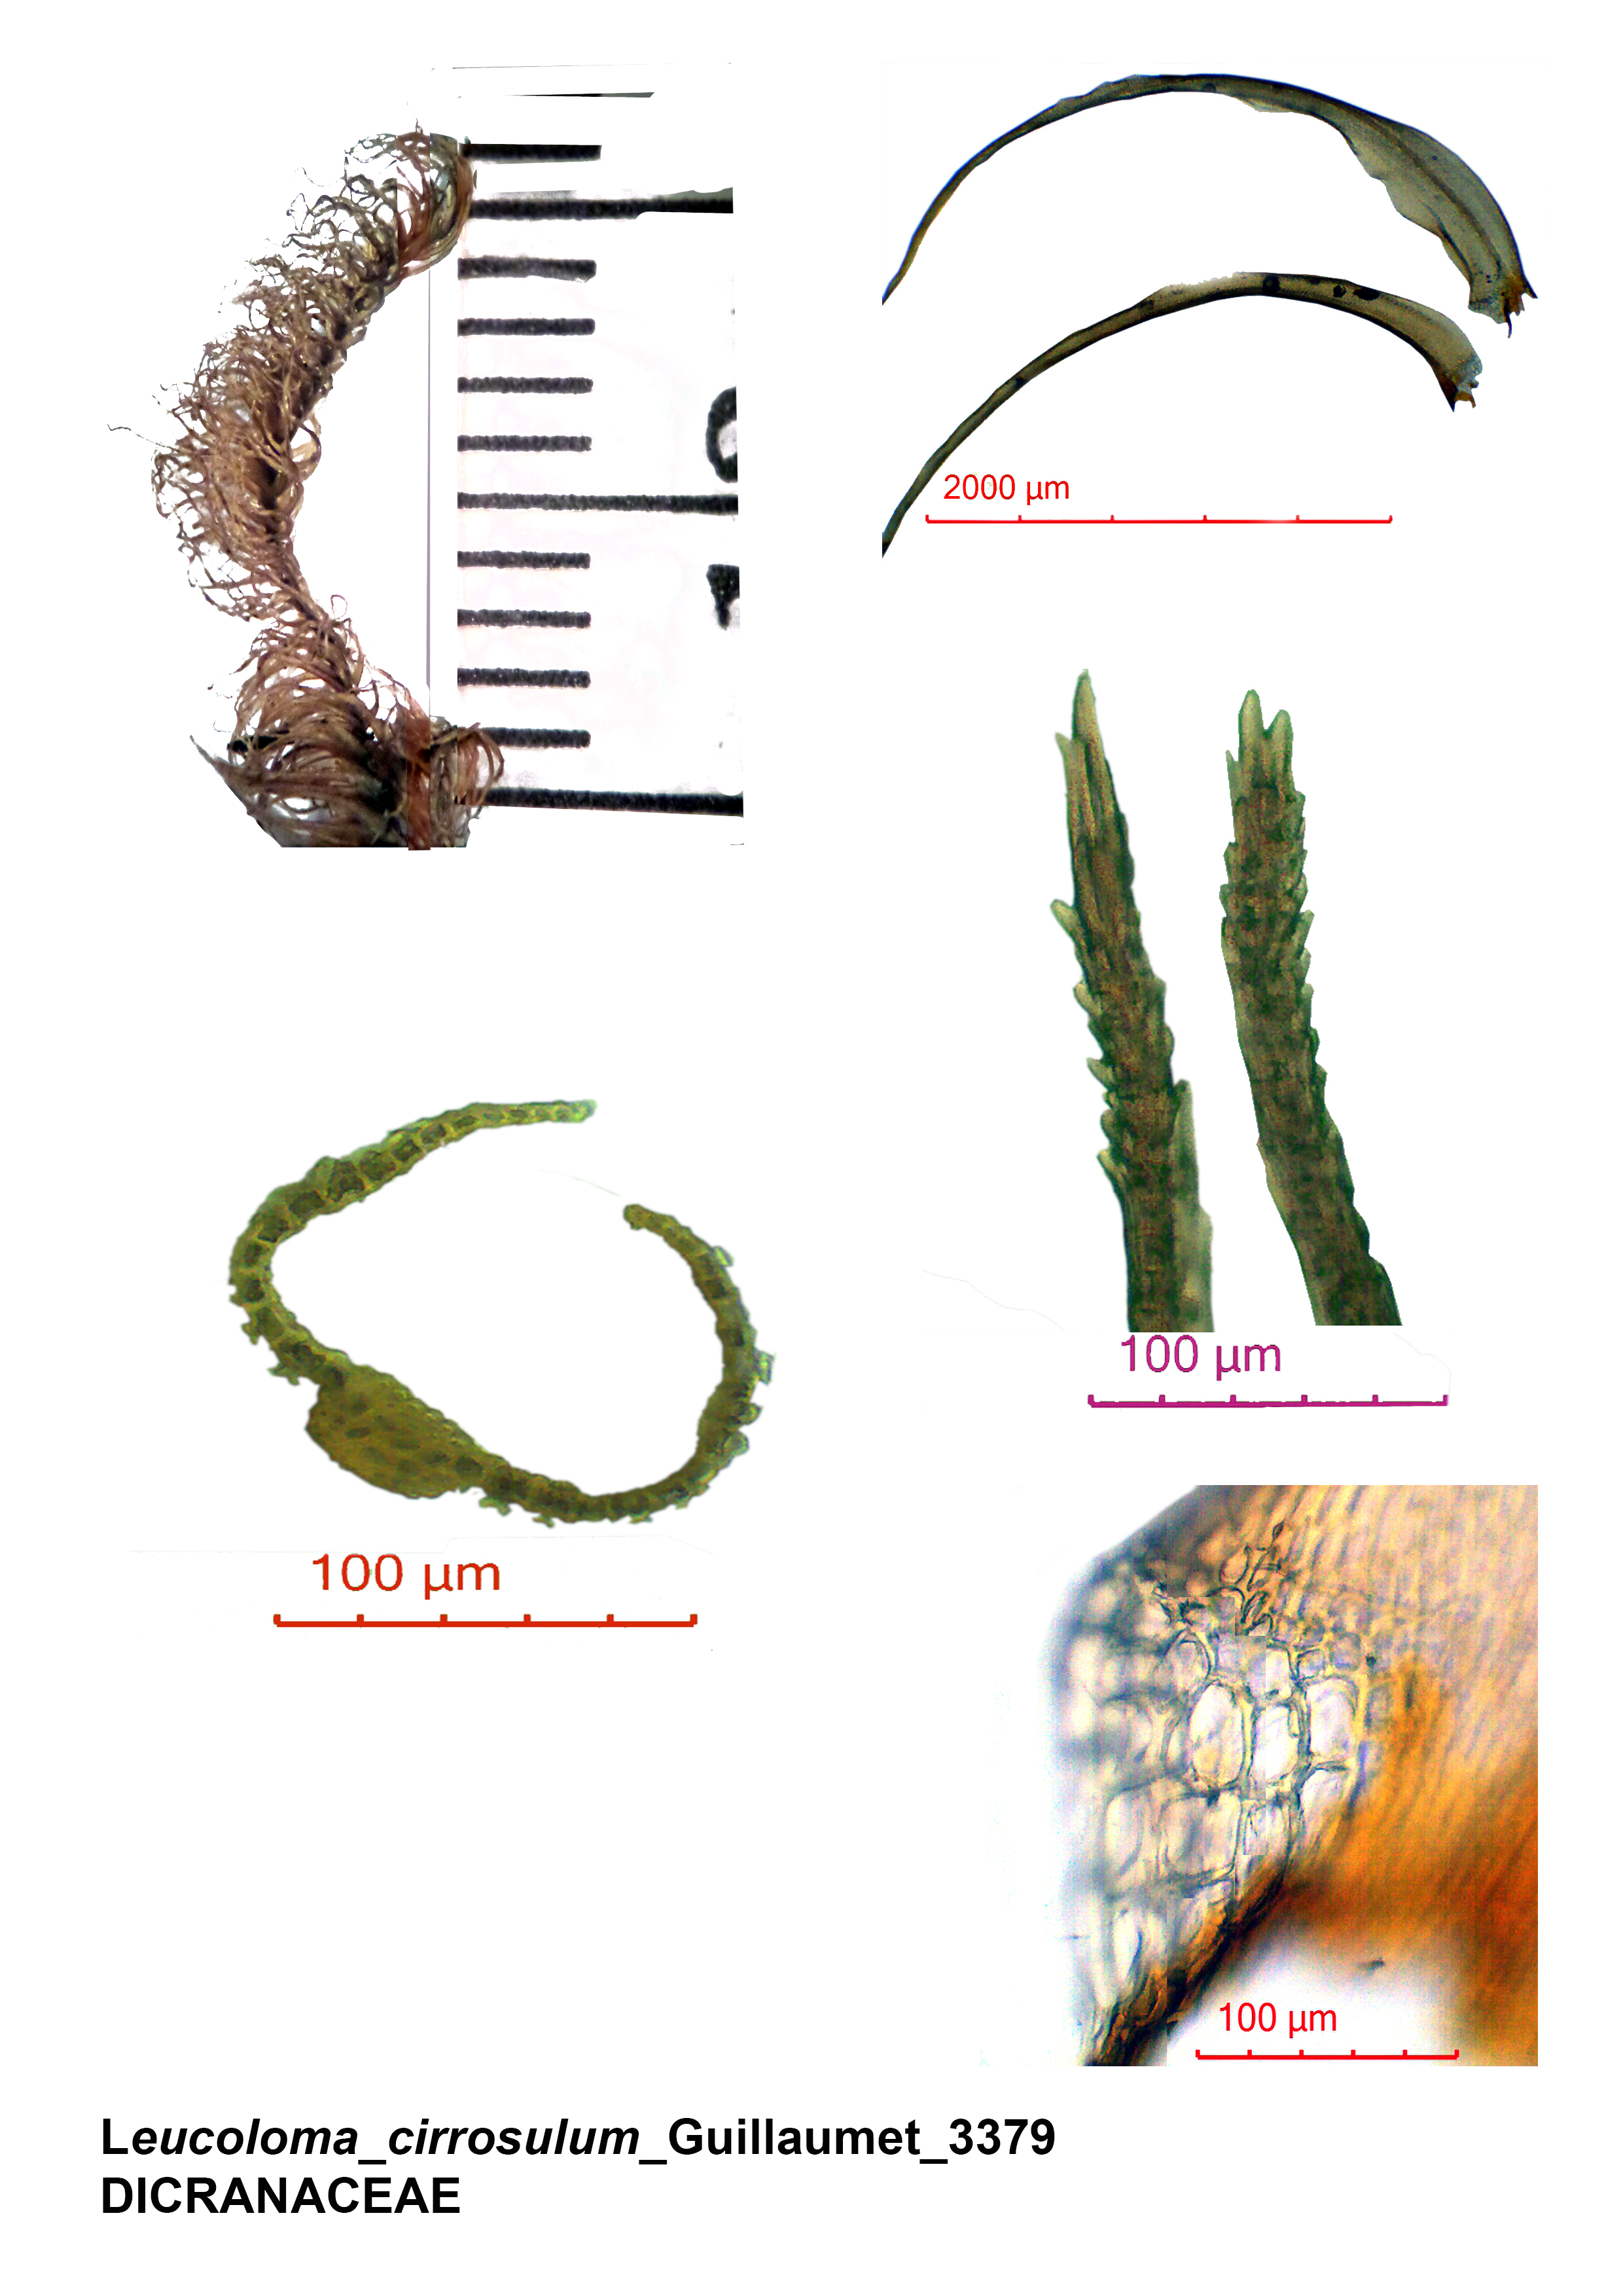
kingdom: Plantae
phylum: Bryophyta
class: Bryopsida
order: Dicranales
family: Dicranaceae
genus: Leucoloma
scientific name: Leucoloma cirrosulum
